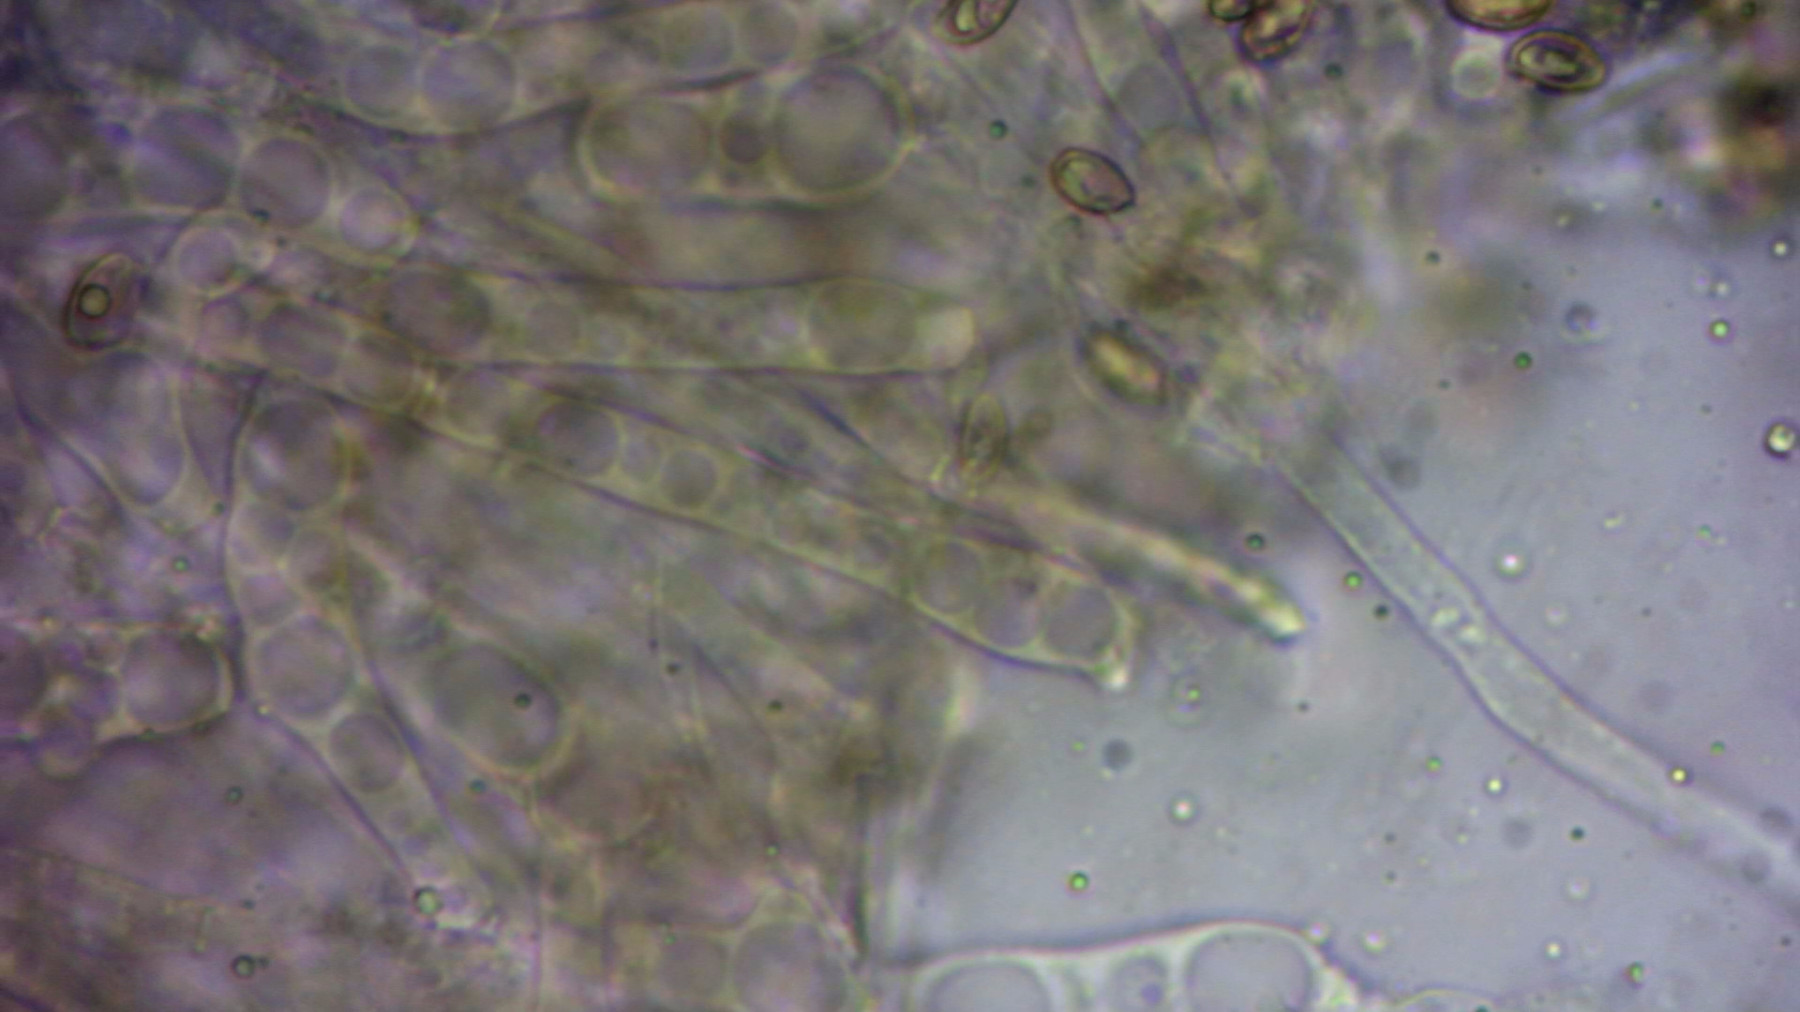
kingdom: Fungi
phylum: Basidiomycota
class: Agaricomycetes
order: Agaricales
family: Crepidotaceae
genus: Crepidotus
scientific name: Crepidotus luteolus
